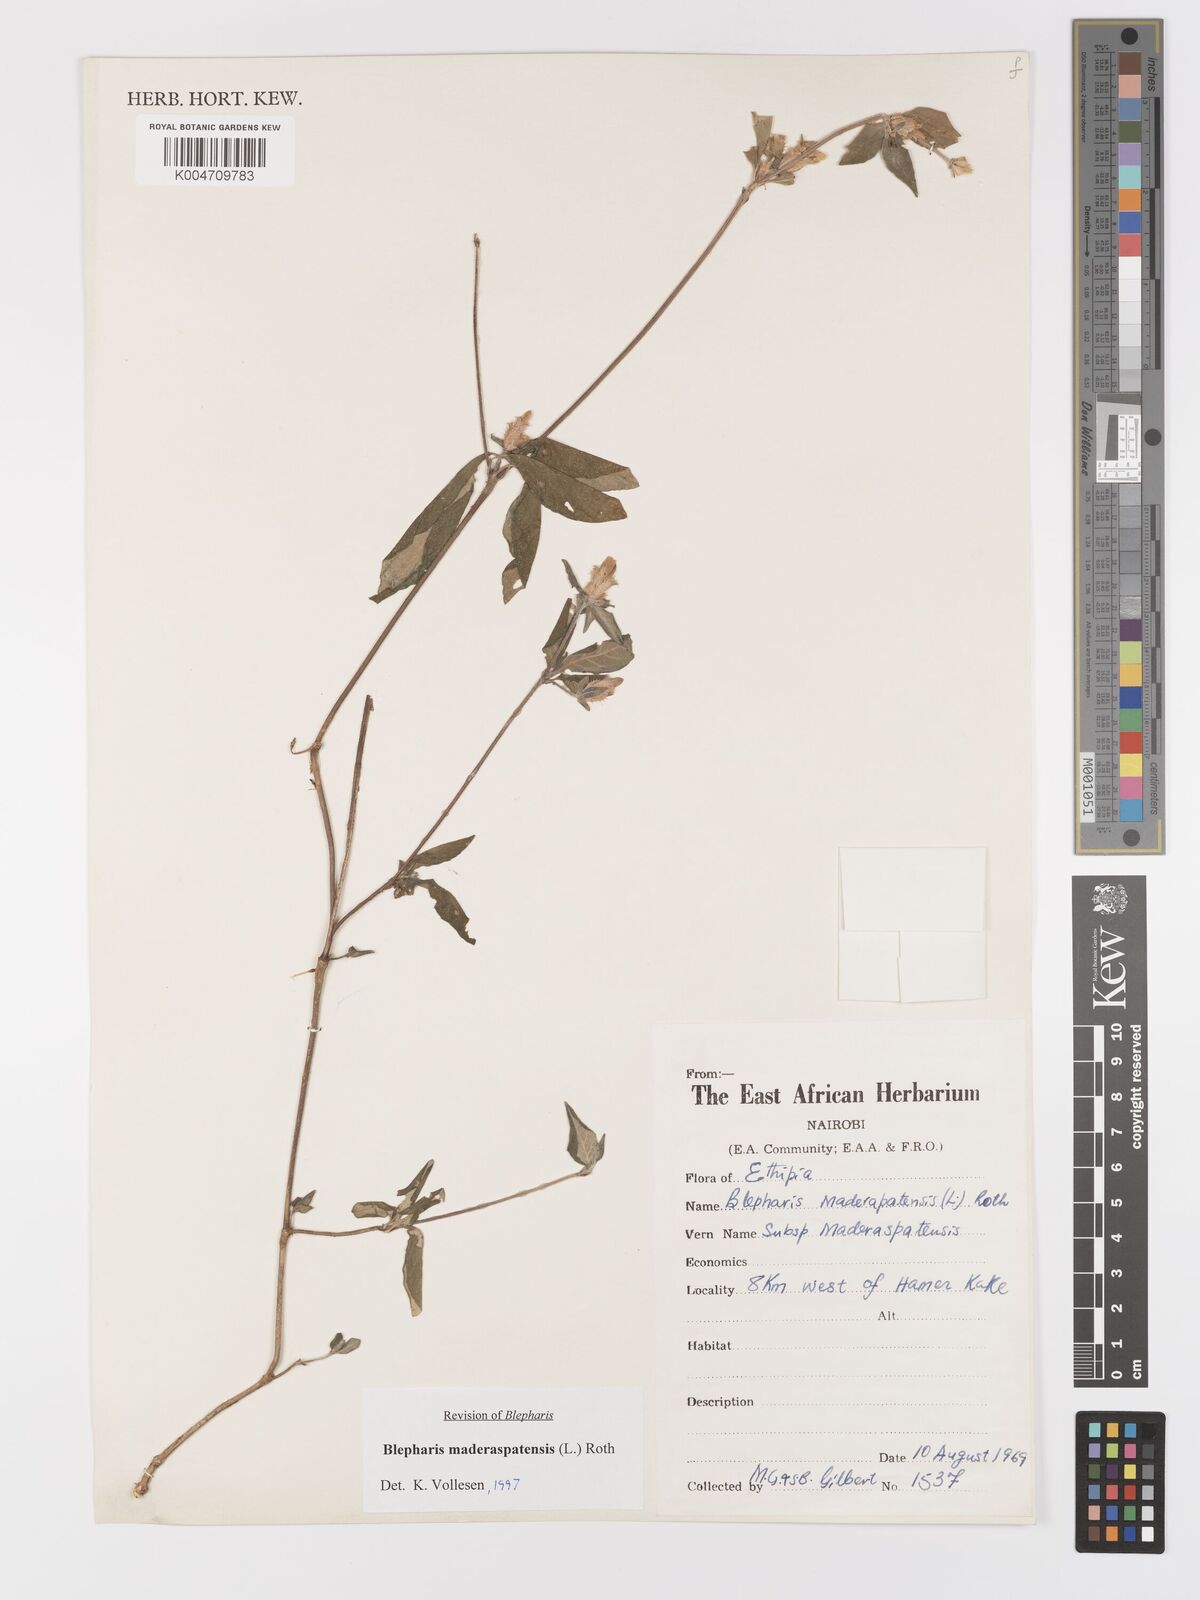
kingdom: Plantae
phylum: Tracheophyta
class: Magnoliopsida
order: Lamiales
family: Acanthaceae
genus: Blepharis
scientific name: Blepharis maderaspatensis
